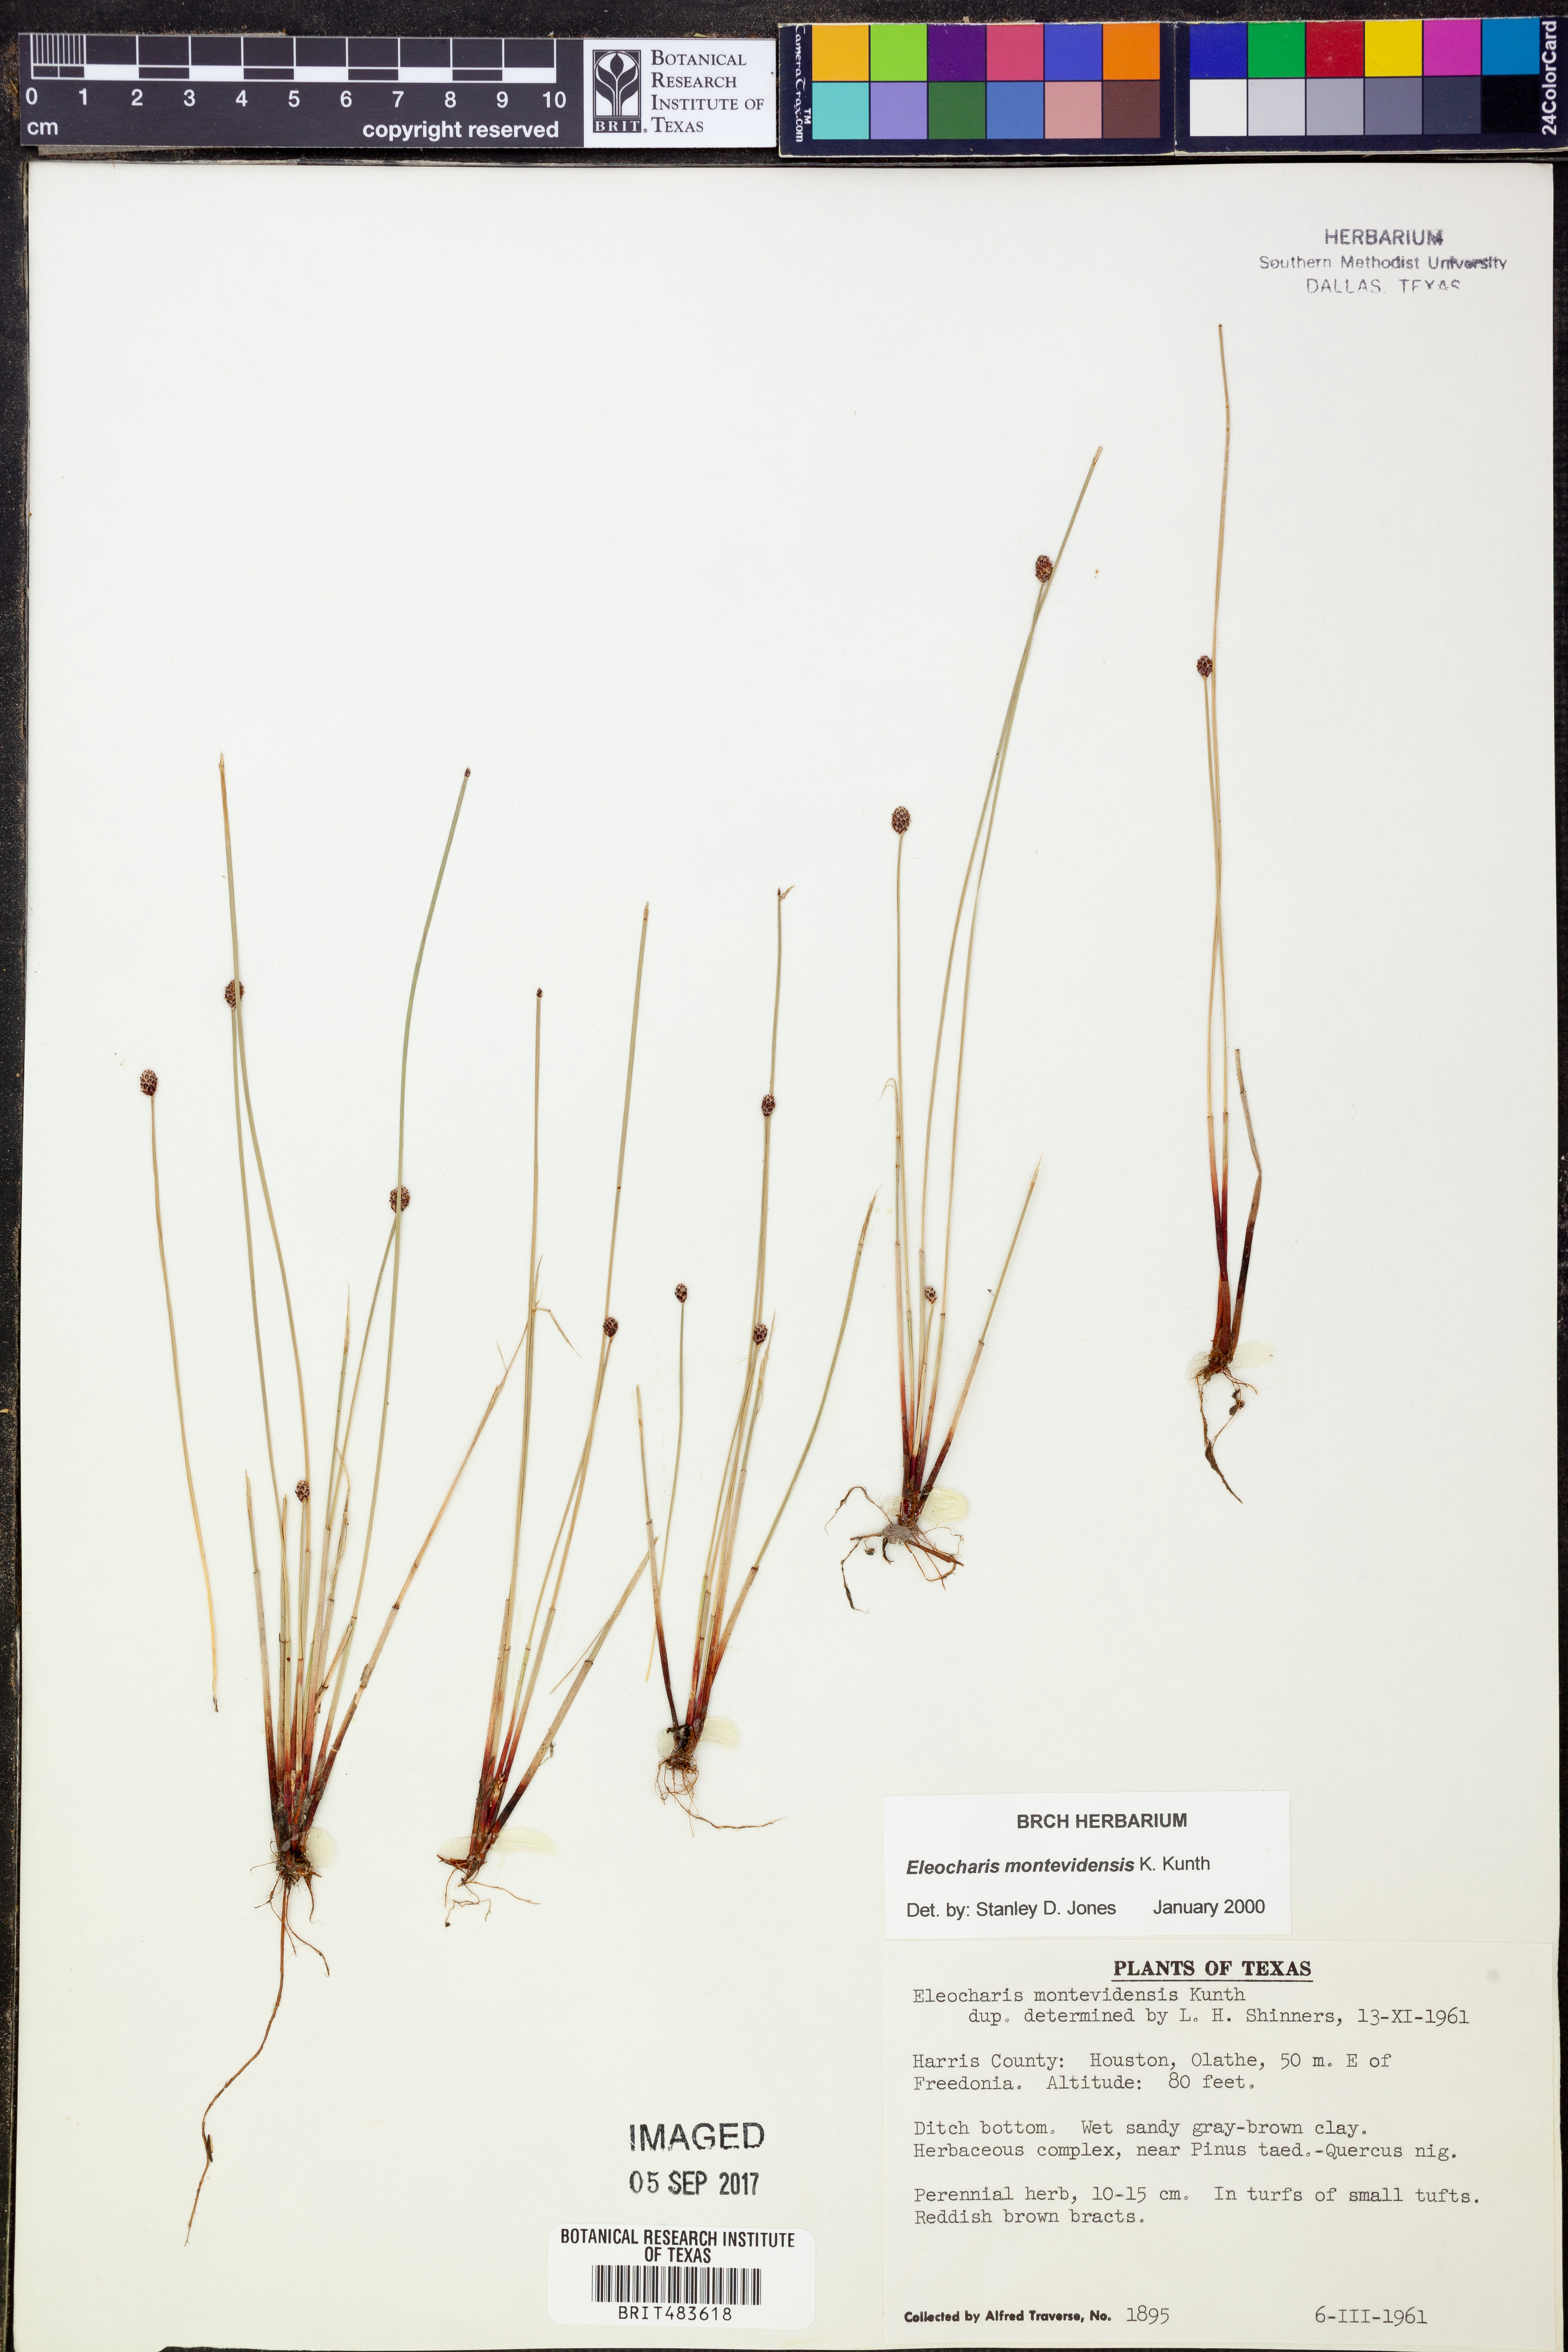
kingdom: Plantae
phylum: Tracheophyta
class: Liliopsida
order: Poales
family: Cyperaceae
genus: Eleocharis
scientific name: Eleocharis montevidensis
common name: Sand spike-rush
